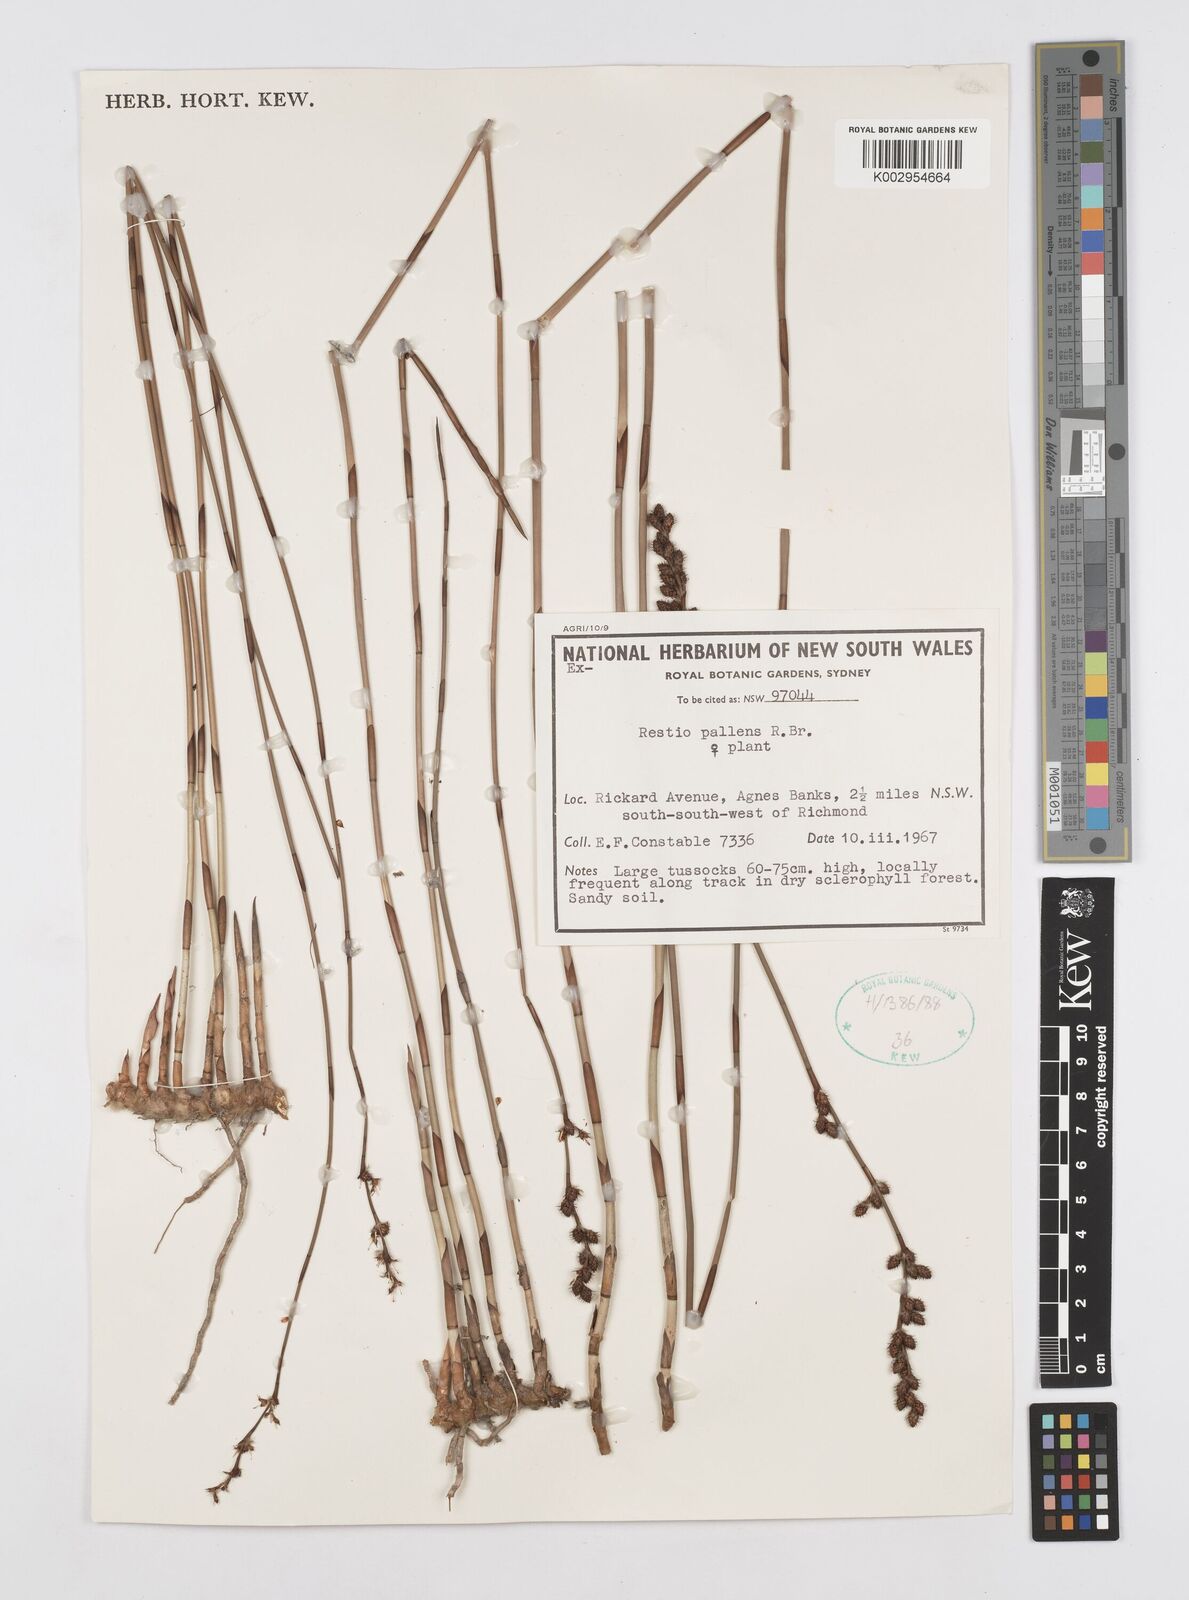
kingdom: Plantae
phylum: Tracheophyta
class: Liliopsida
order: Poales
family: Restionaceae
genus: Baloskion
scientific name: Baloskion pallens
